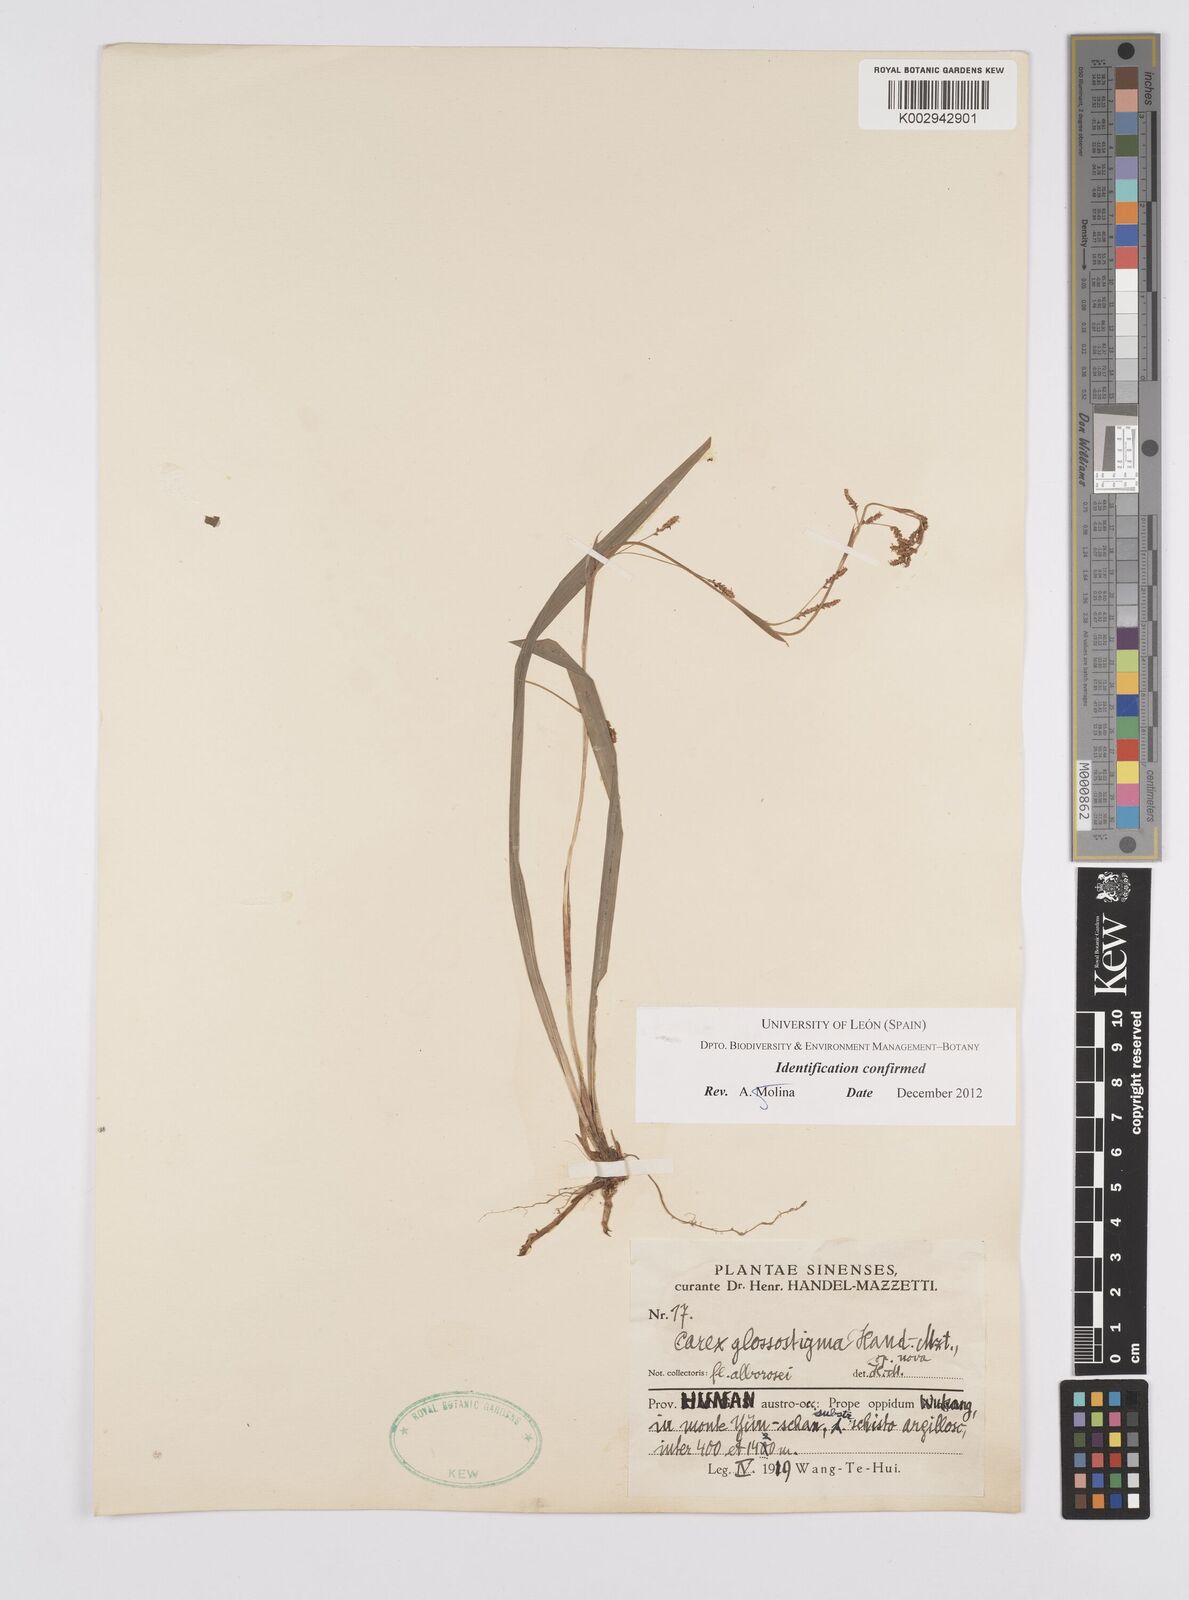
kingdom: Plantae
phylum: Tracheophyta
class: Liliopsida
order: Poales
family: Cyperaceae
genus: Carex
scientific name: Carex glossostigma
